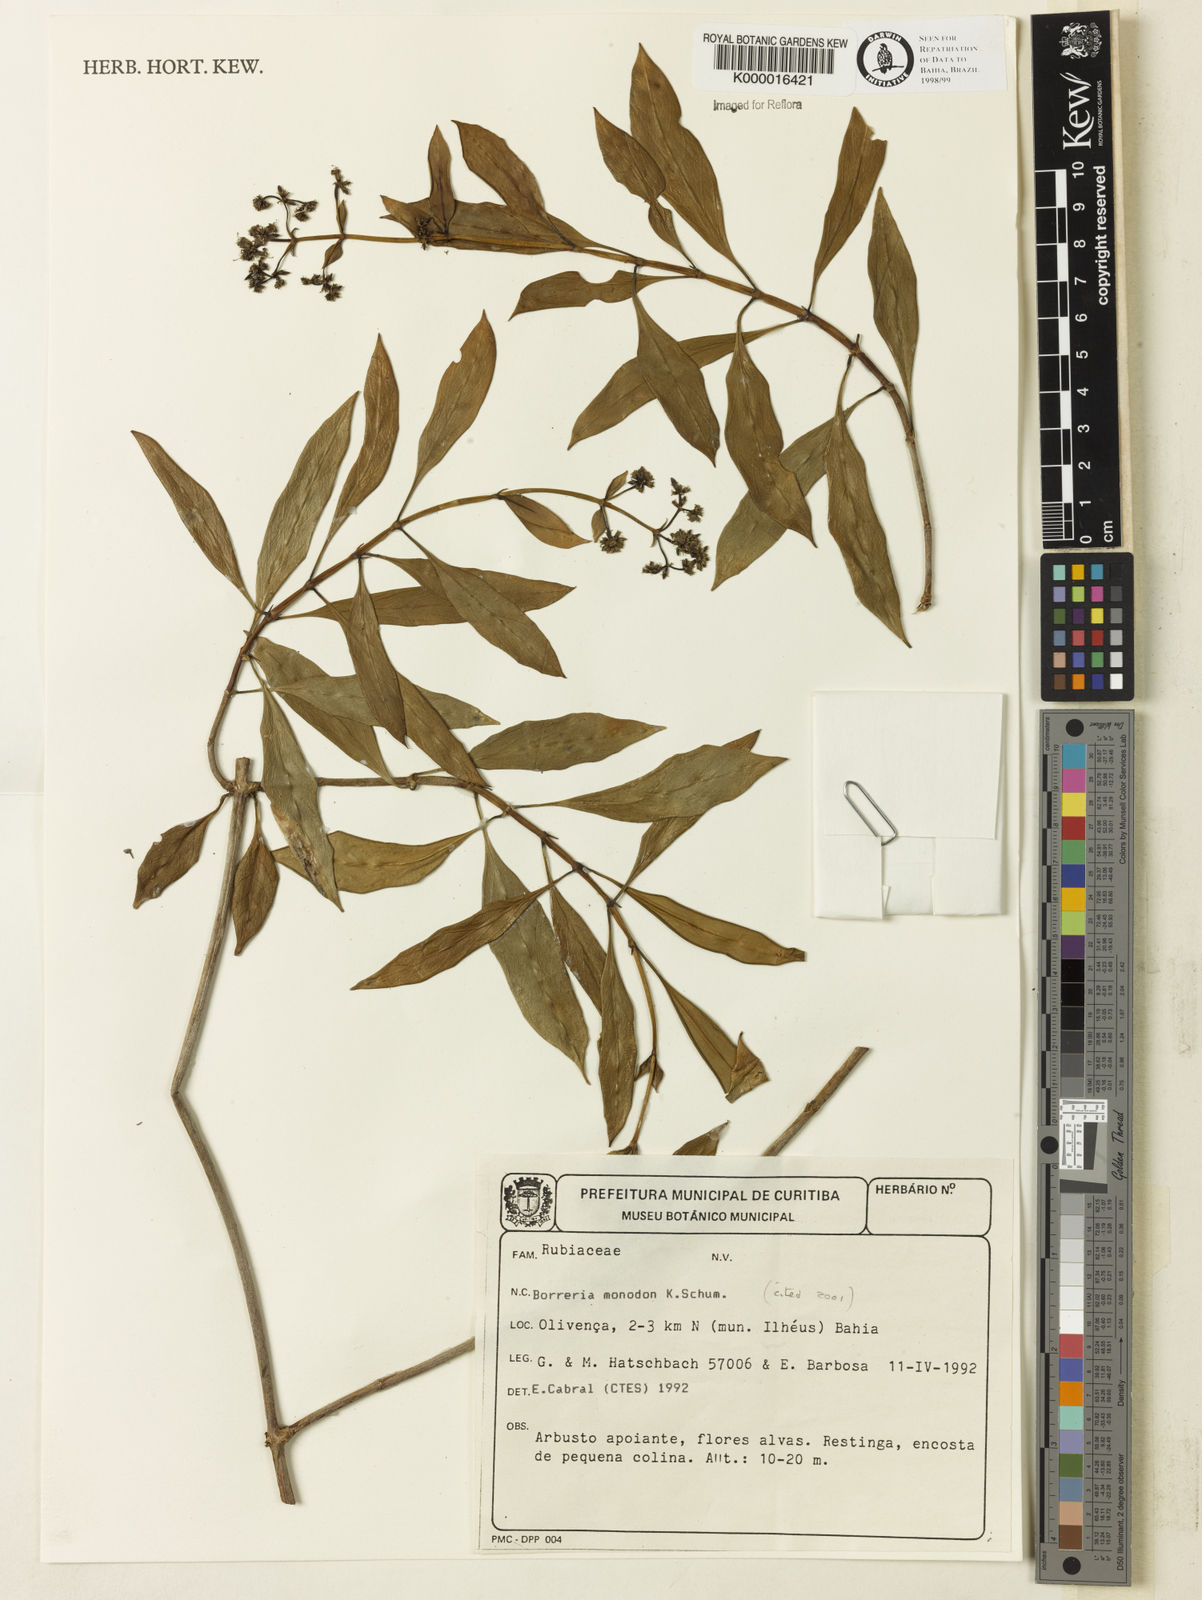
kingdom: Plantae
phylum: Tracheophyta
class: Magnoliopsida
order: Gentianales
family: Rubiaceae
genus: Denscantia
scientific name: Denscantia monodon
